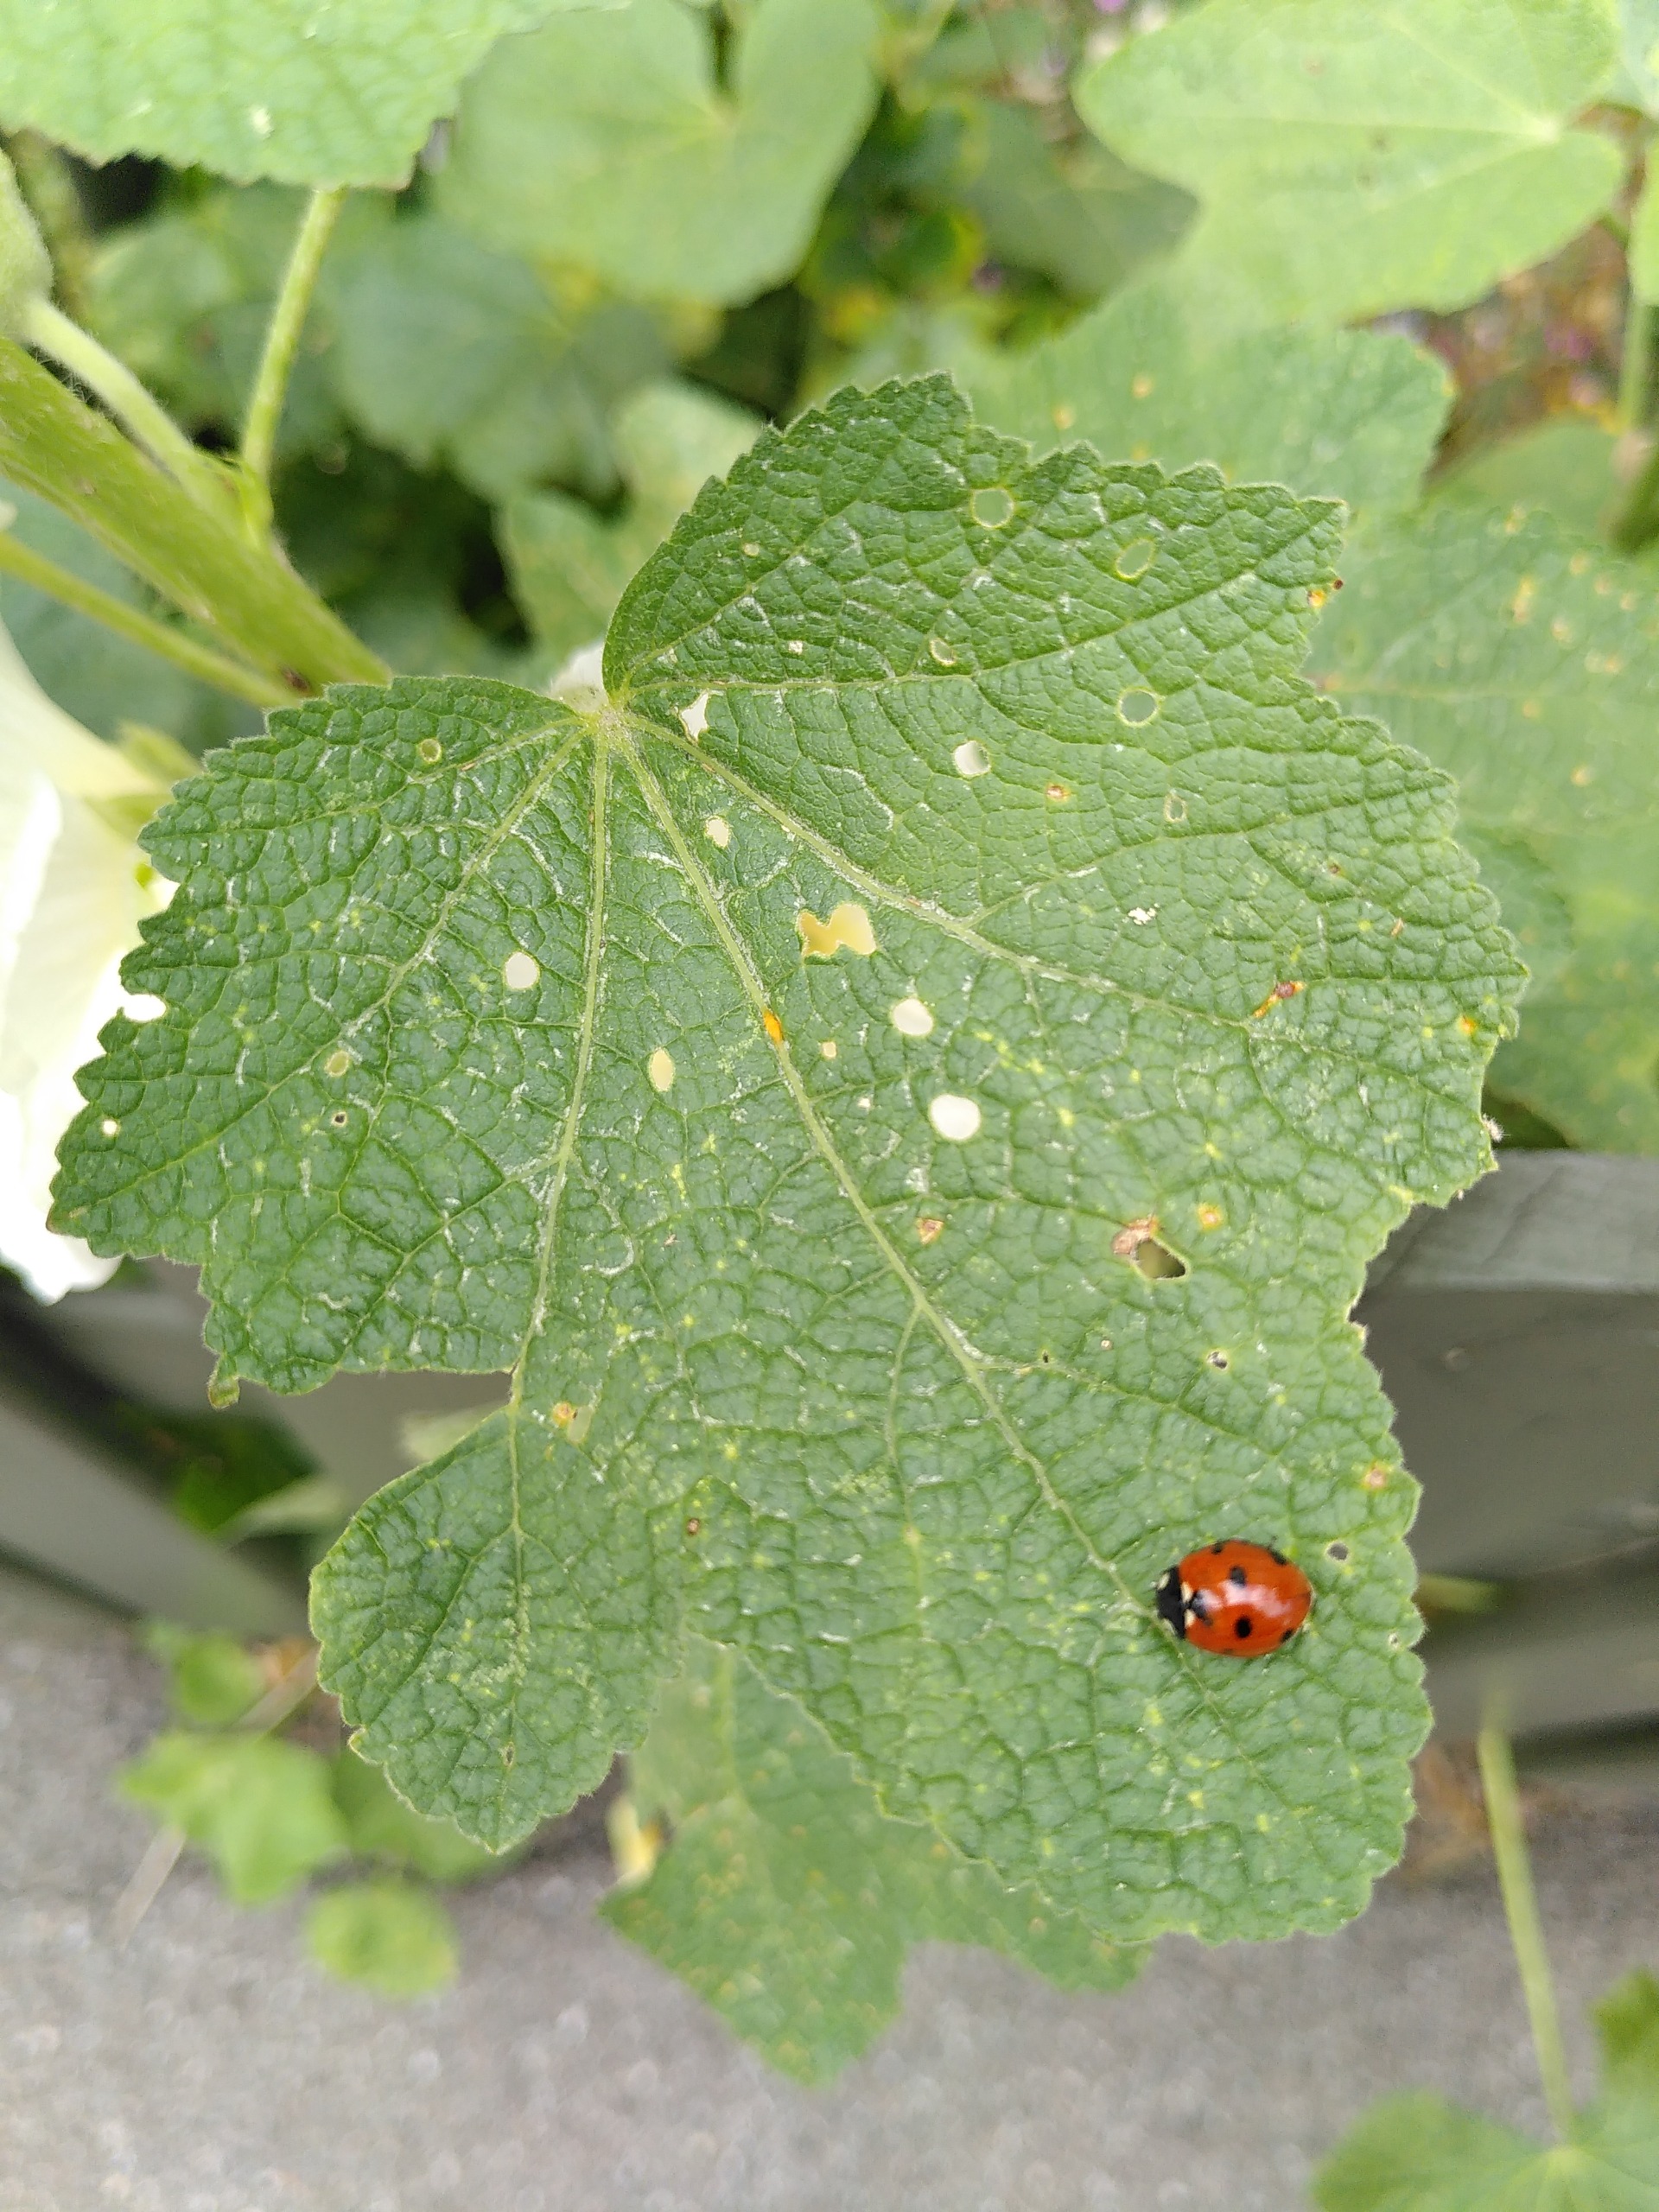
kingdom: Animalia
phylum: Arthropoda
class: Insecta
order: Coleoptera
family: Coccinellidae
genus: Coccinella
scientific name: Coccinella septempunctata
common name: Syvplettet mariehøne
